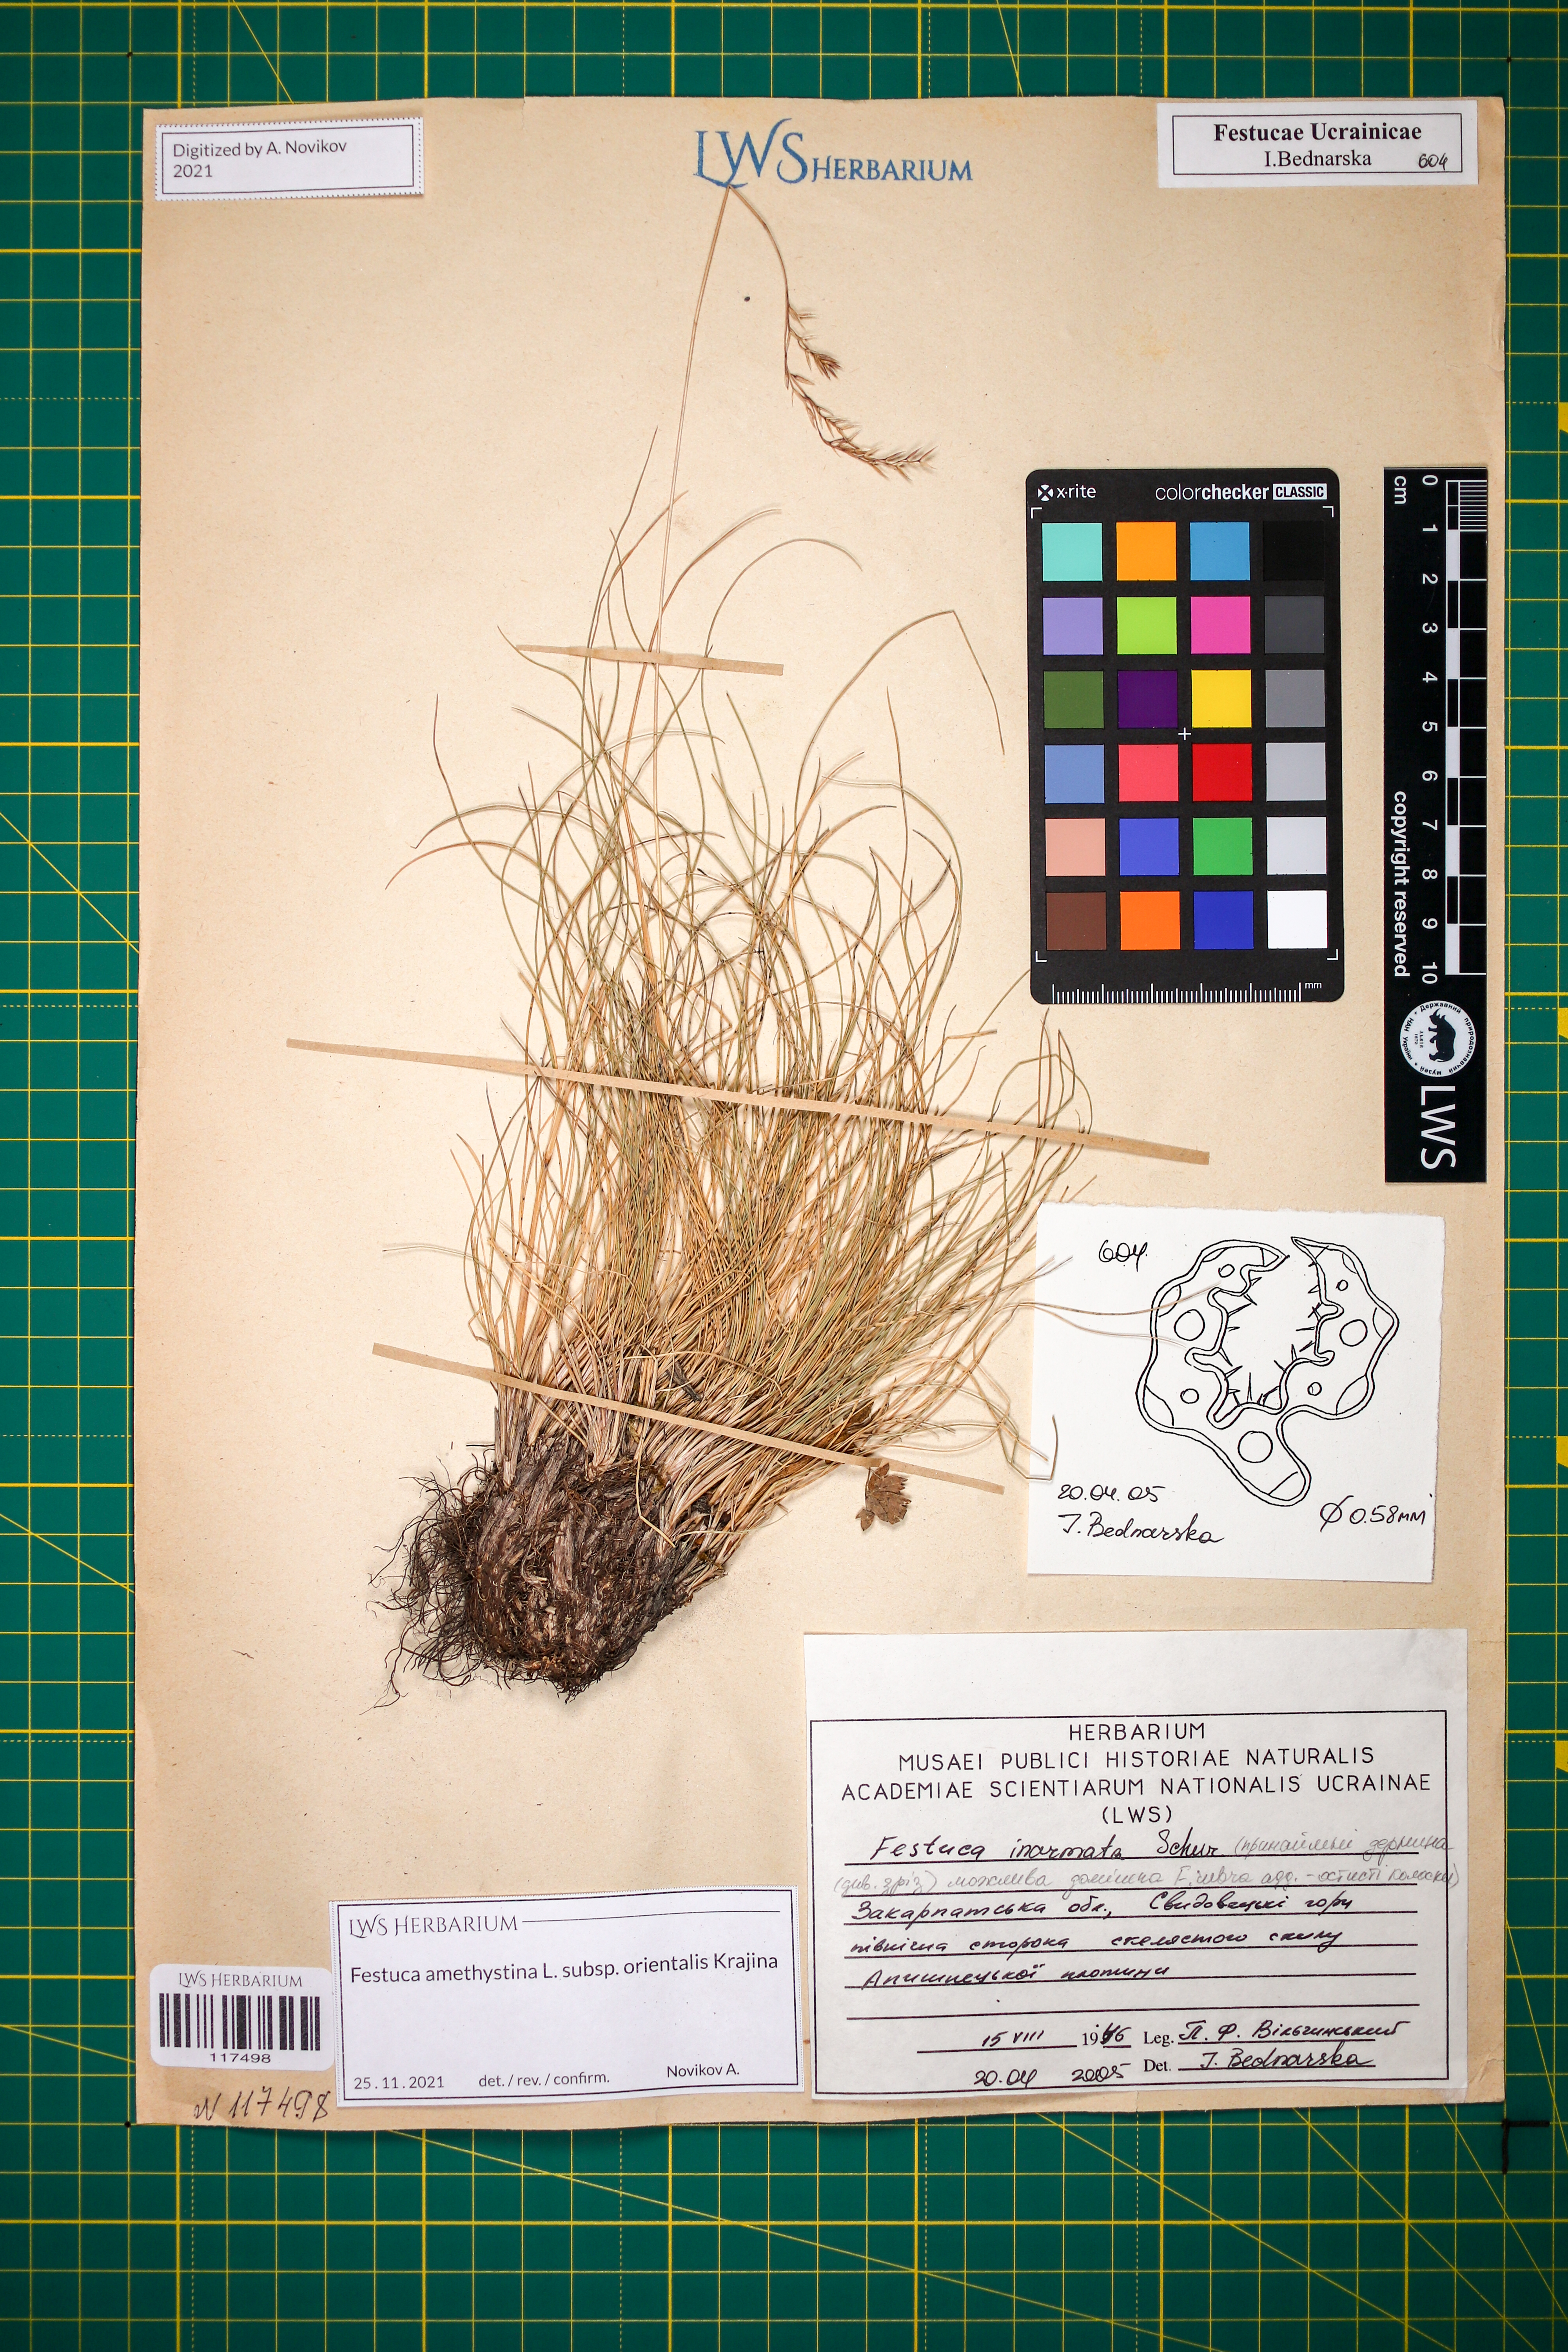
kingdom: Plantae
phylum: Tracheophyta
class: Liliopsida
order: Poales
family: Poaceae
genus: Festuca
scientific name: Festuca amethystina
